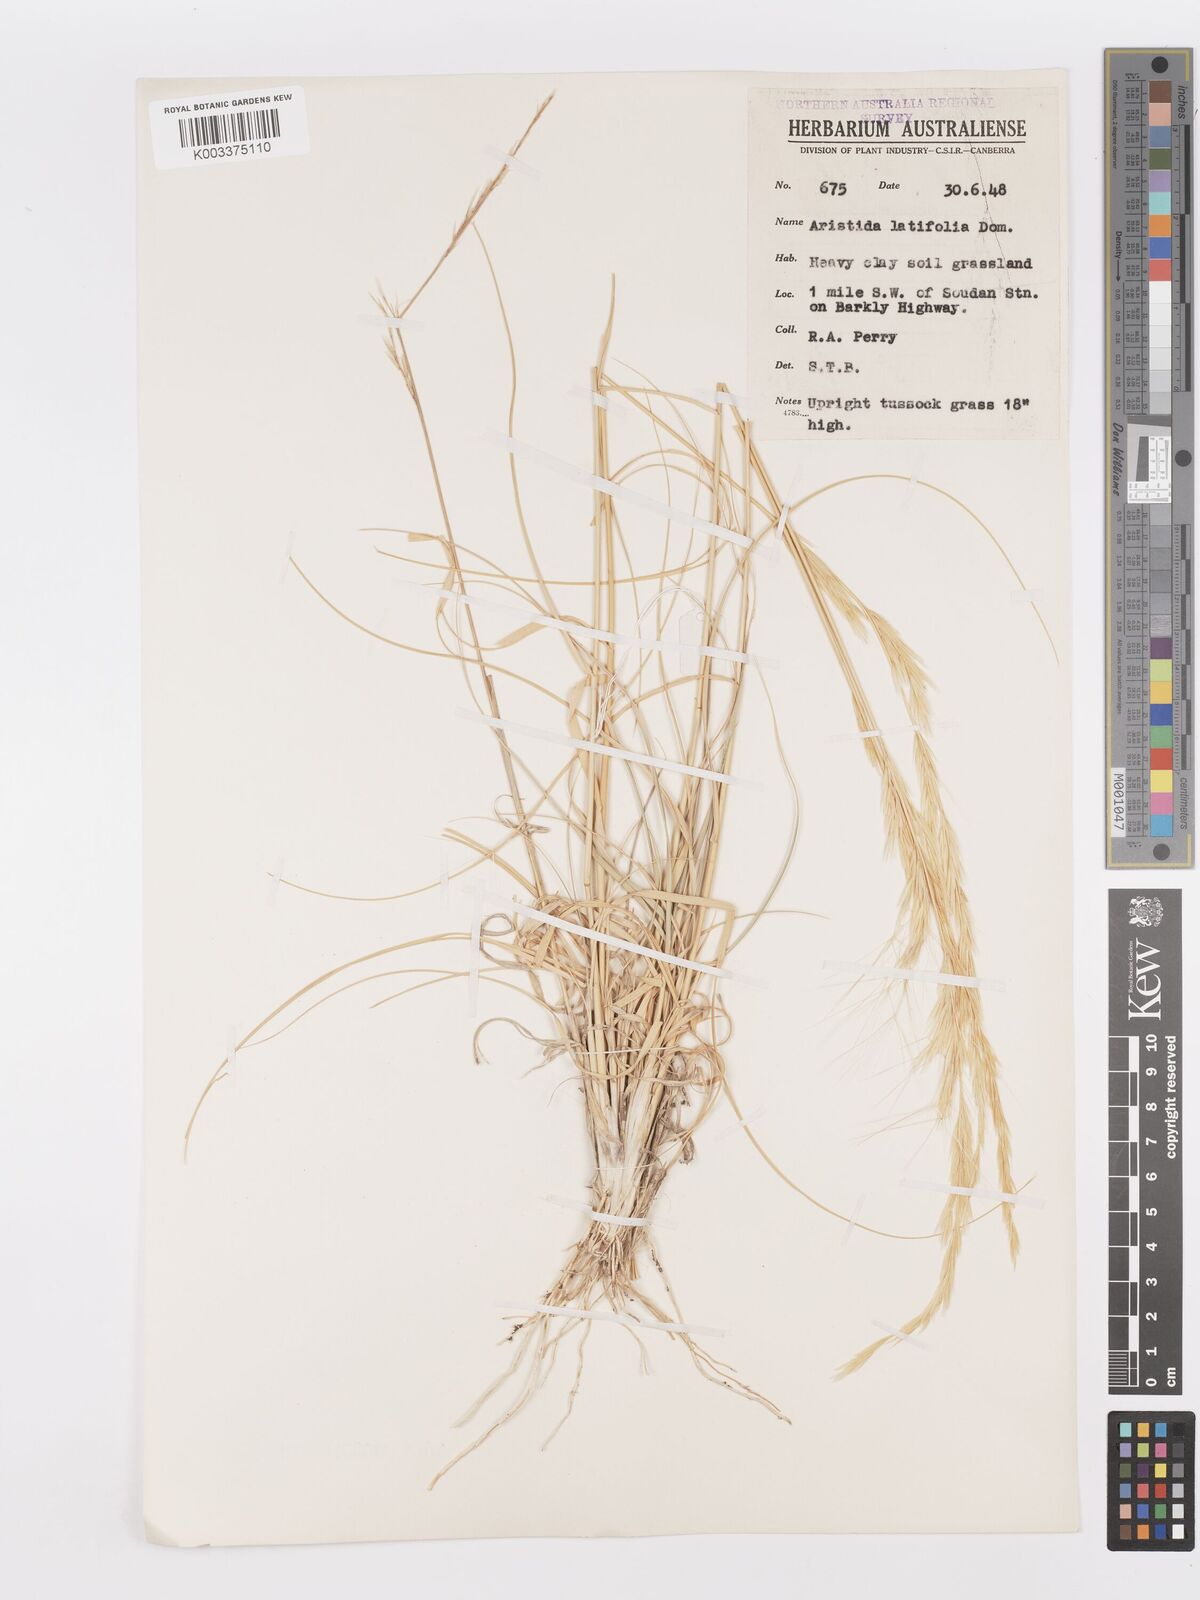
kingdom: Plantae
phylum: Tracheophyta
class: Liliopsida
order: Poales
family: Poaceae
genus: Aristida
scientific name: Aristida latifolia
